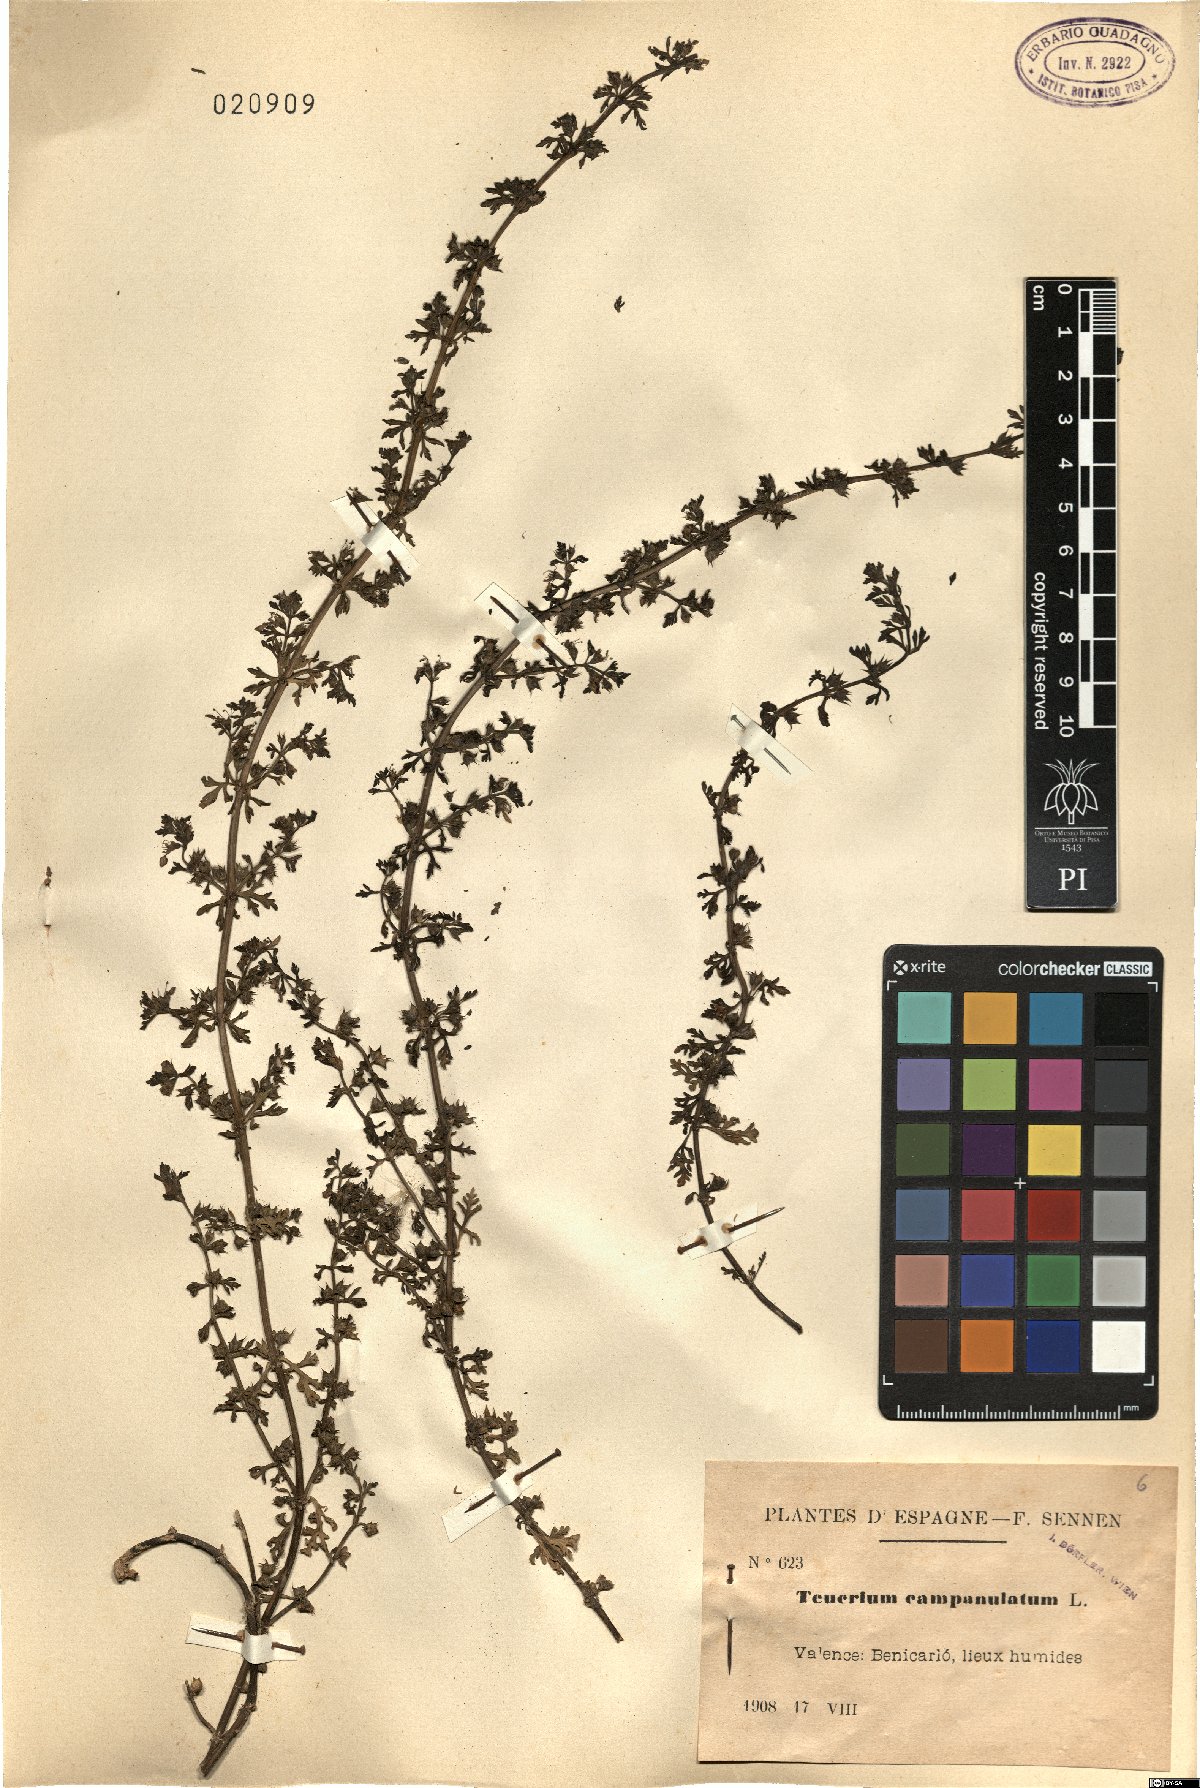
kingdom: Plantae
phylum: Tracheophyta
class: Magnoliopsida
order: Lamiales
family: Lamiaceae
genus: Teucrium
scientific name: Teucrium campanulatum
